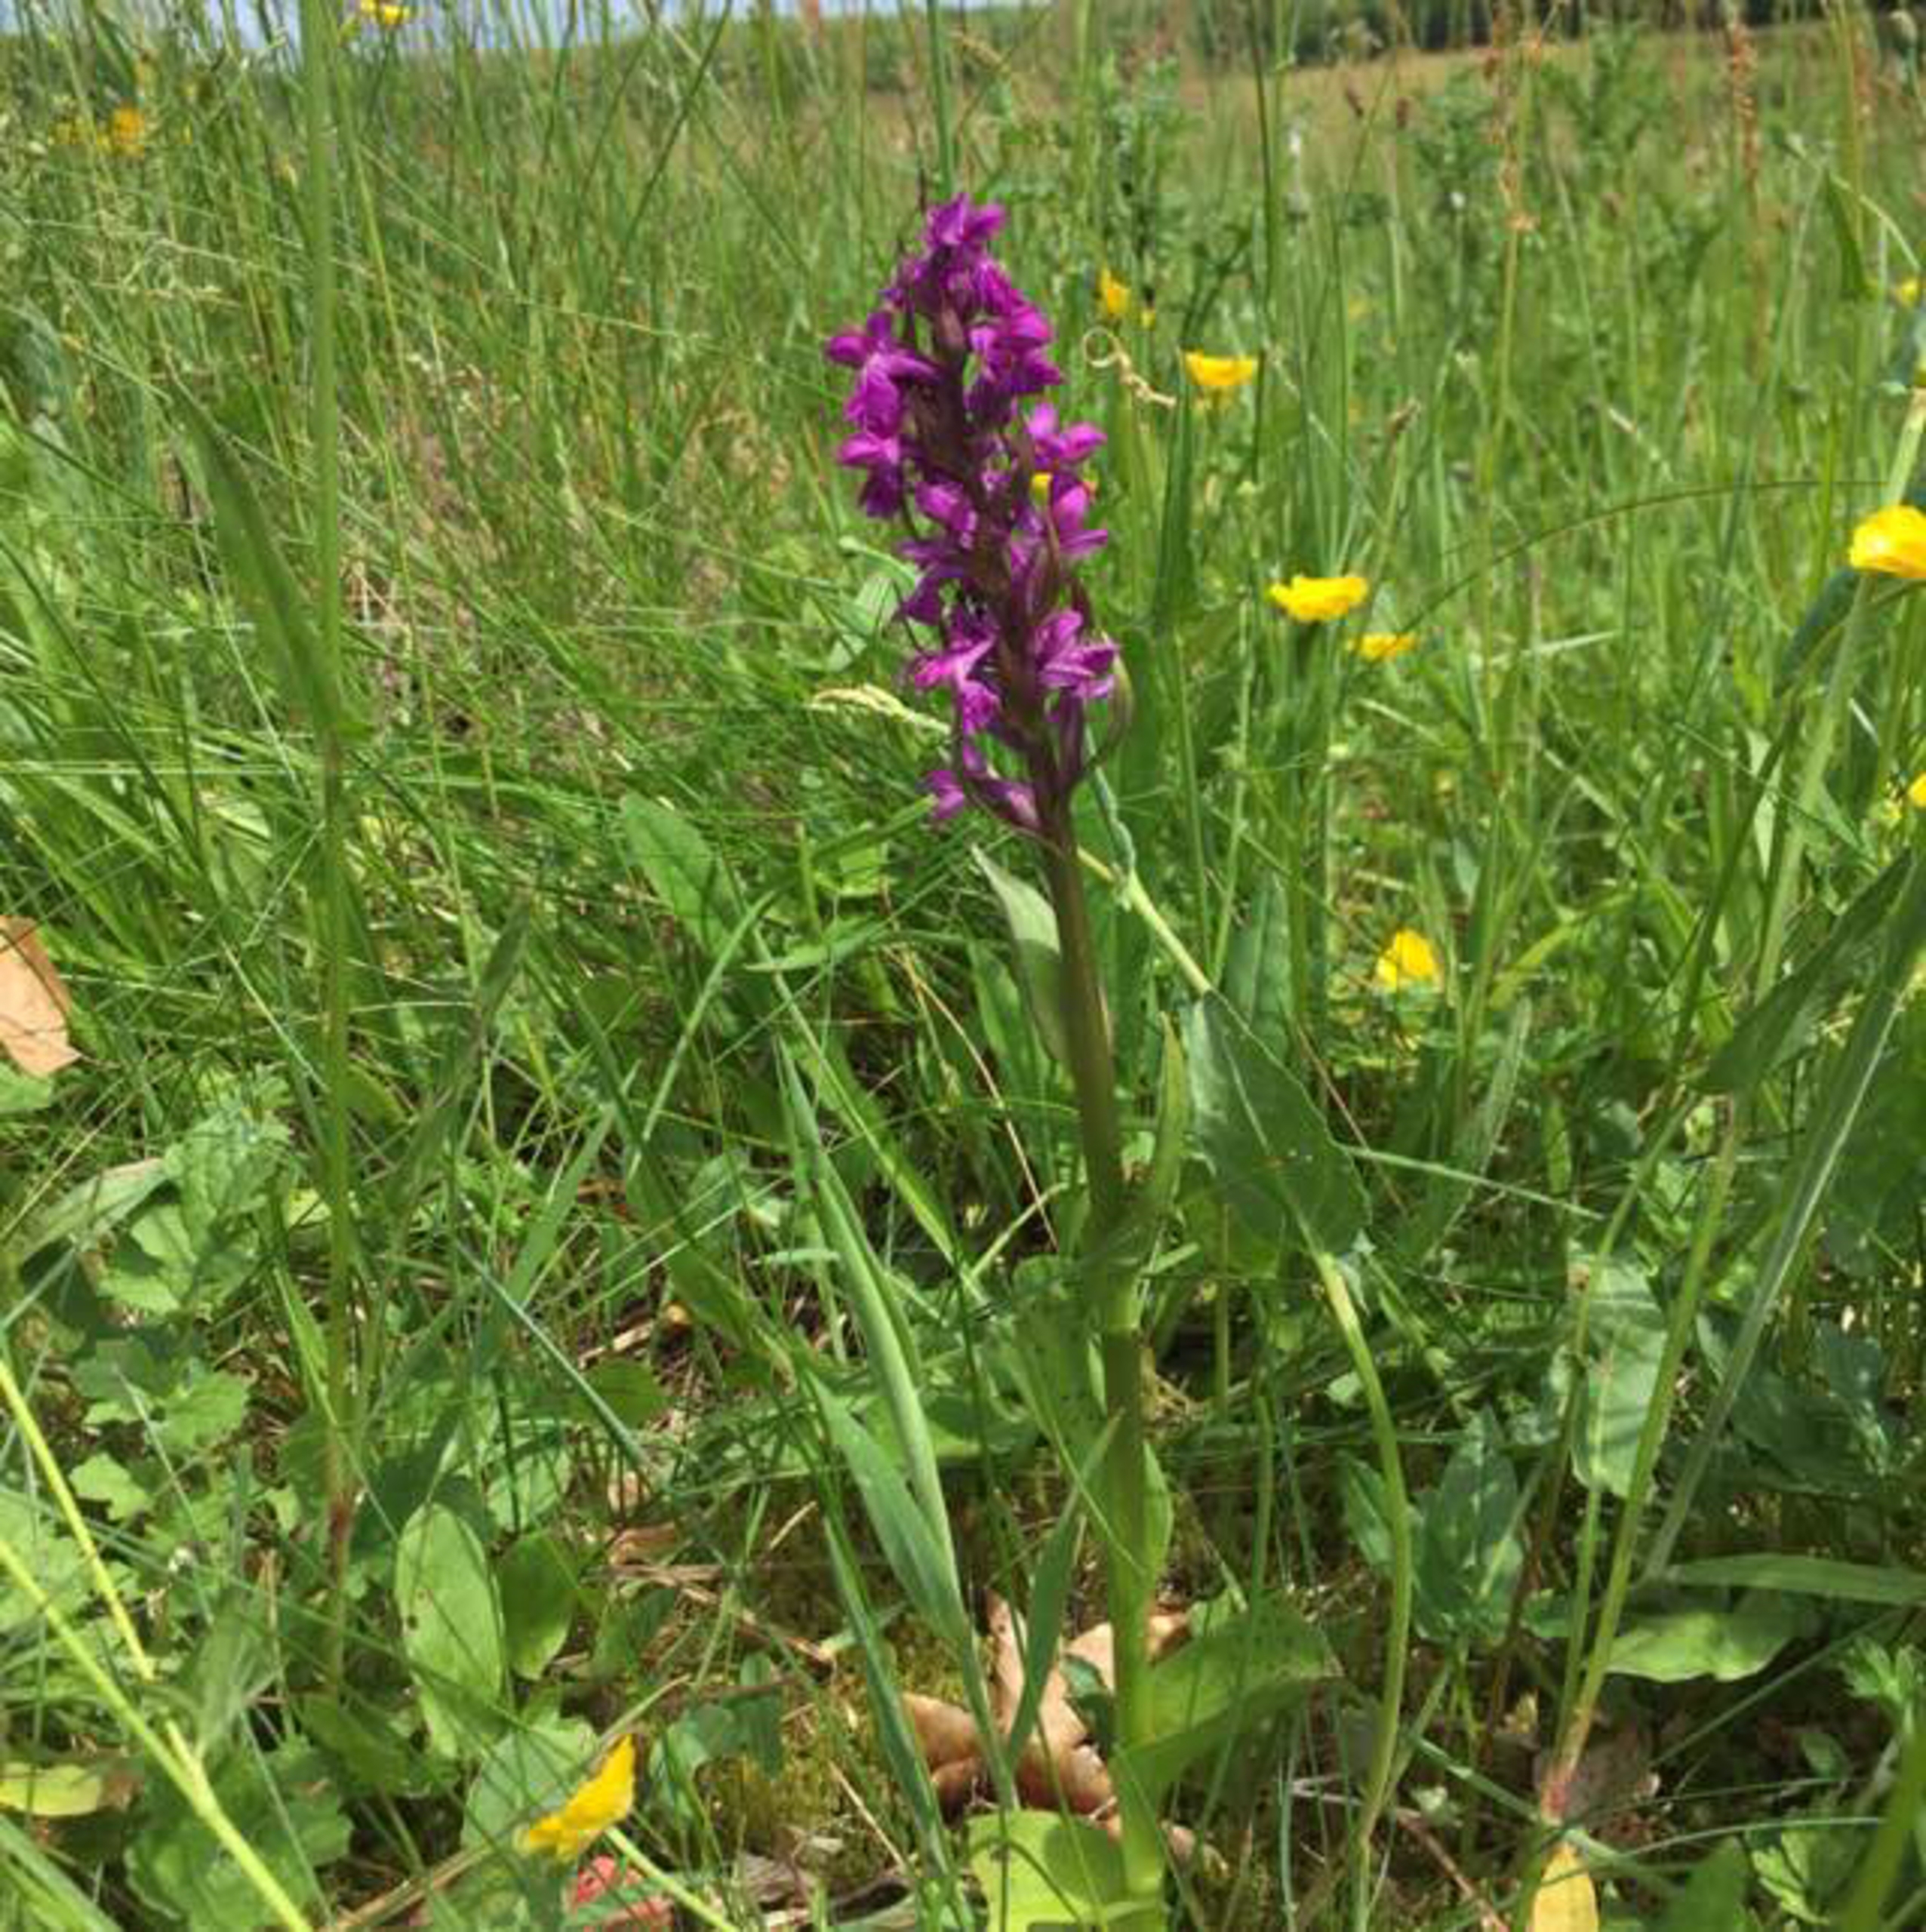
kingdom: Plantae
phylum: Tracheophyta
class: Liliopsida
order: Asparagales
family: Orchidaceae
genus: Dactylorhiza
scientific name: Dactylorhiza majalis
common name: Maj-gøgeurt
